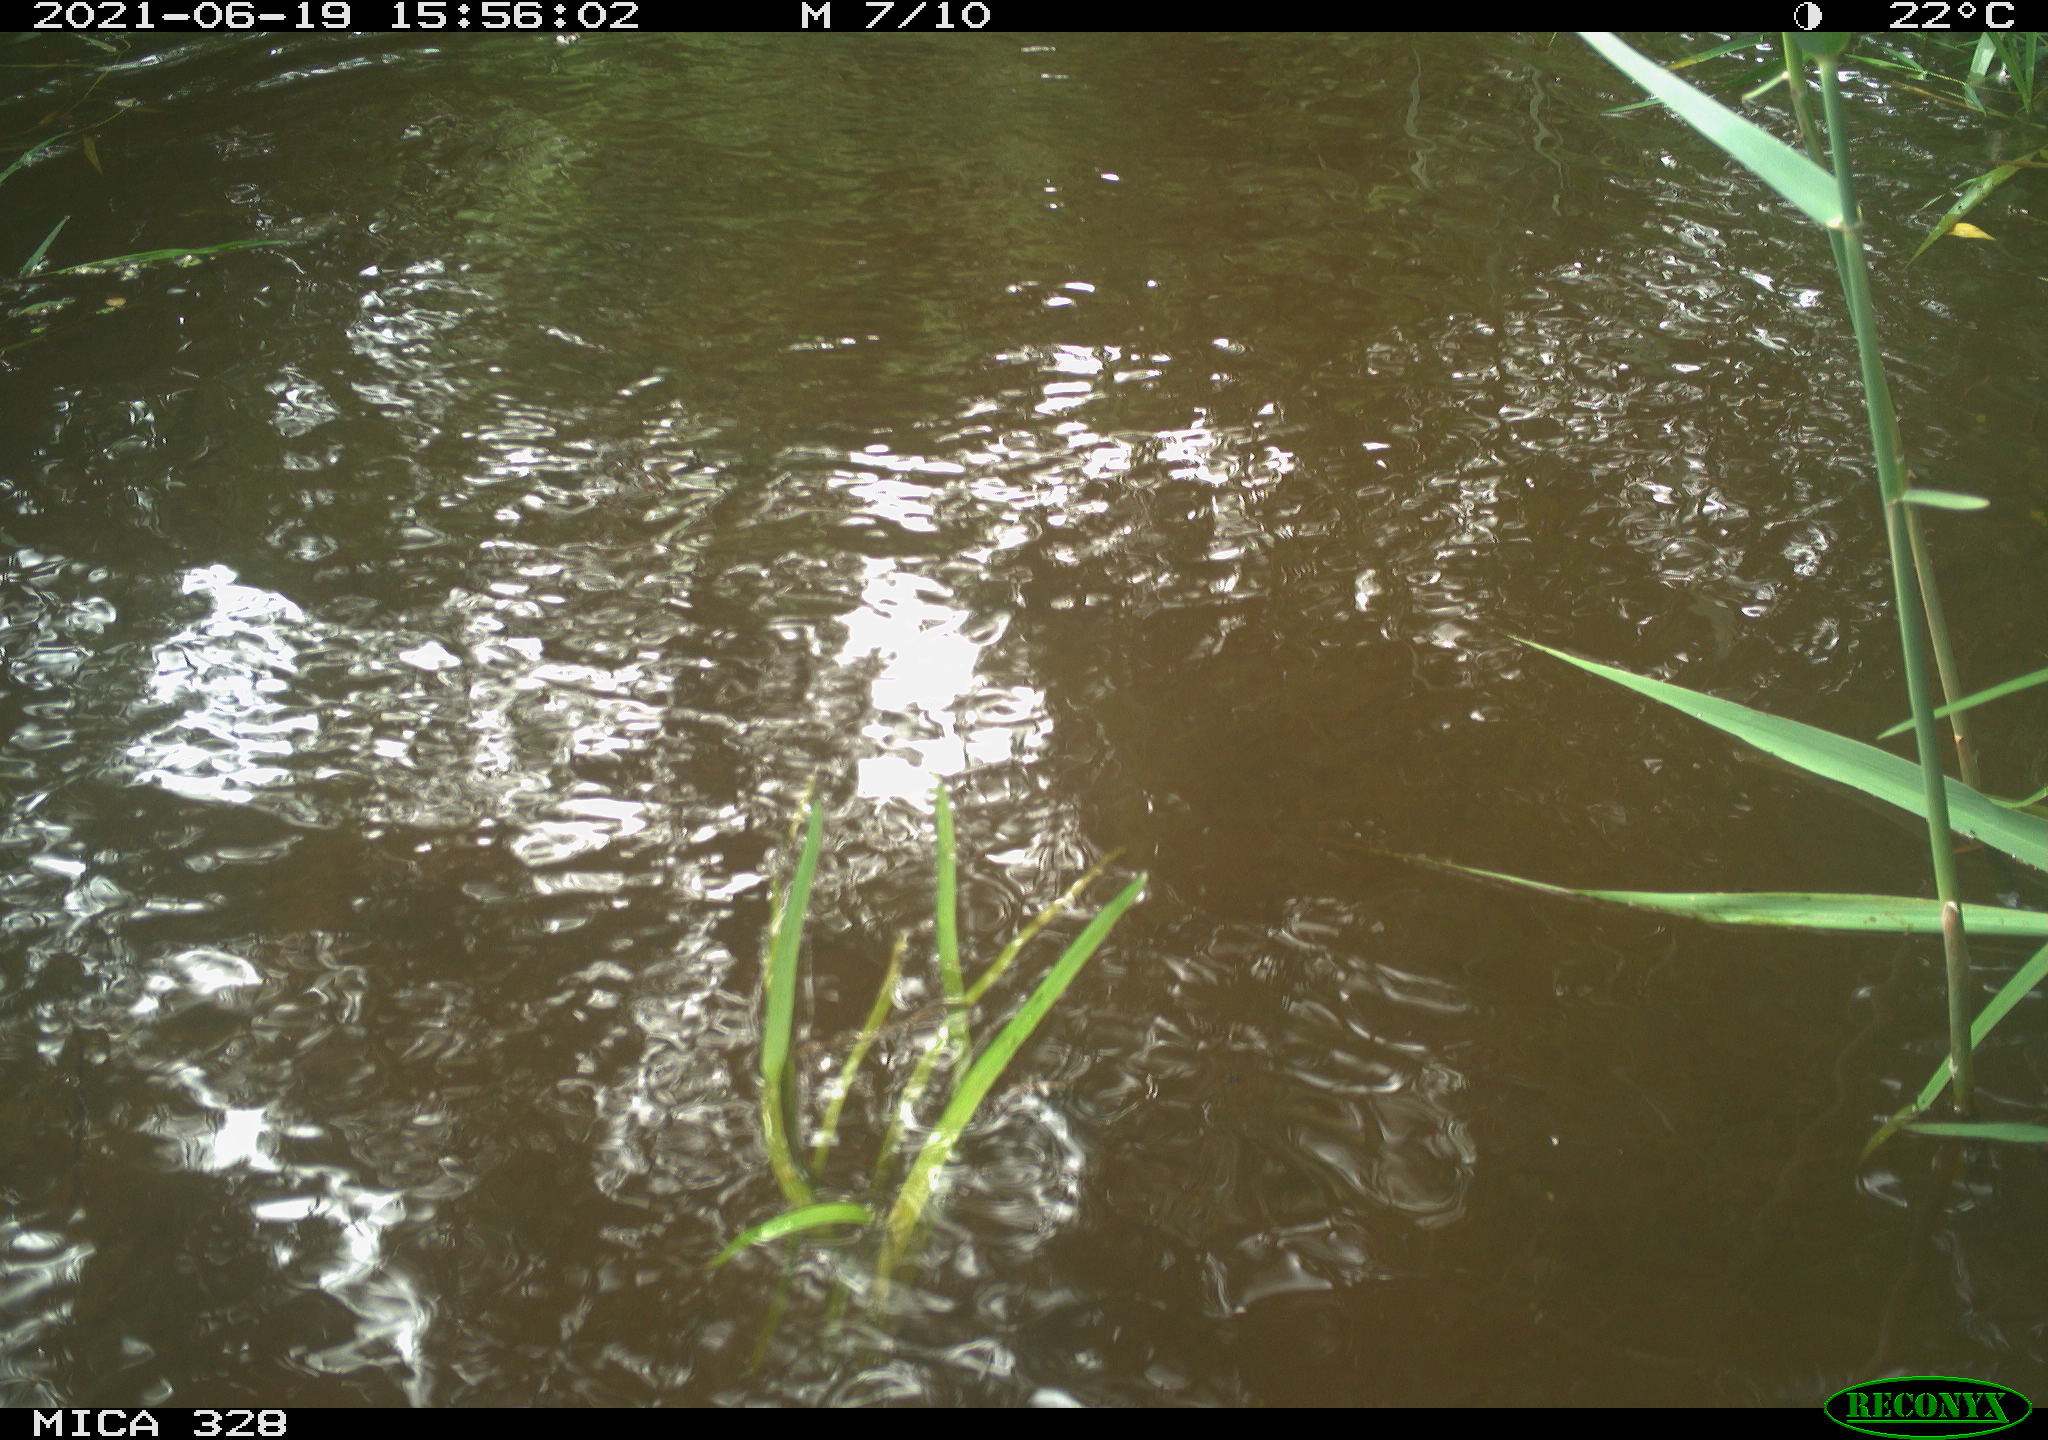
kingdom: Animalia
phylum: Chordata
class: Aves
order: Anseriformes
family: Anatidae
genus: Aix
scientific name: Aix galericulata
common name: Mandarin duck
